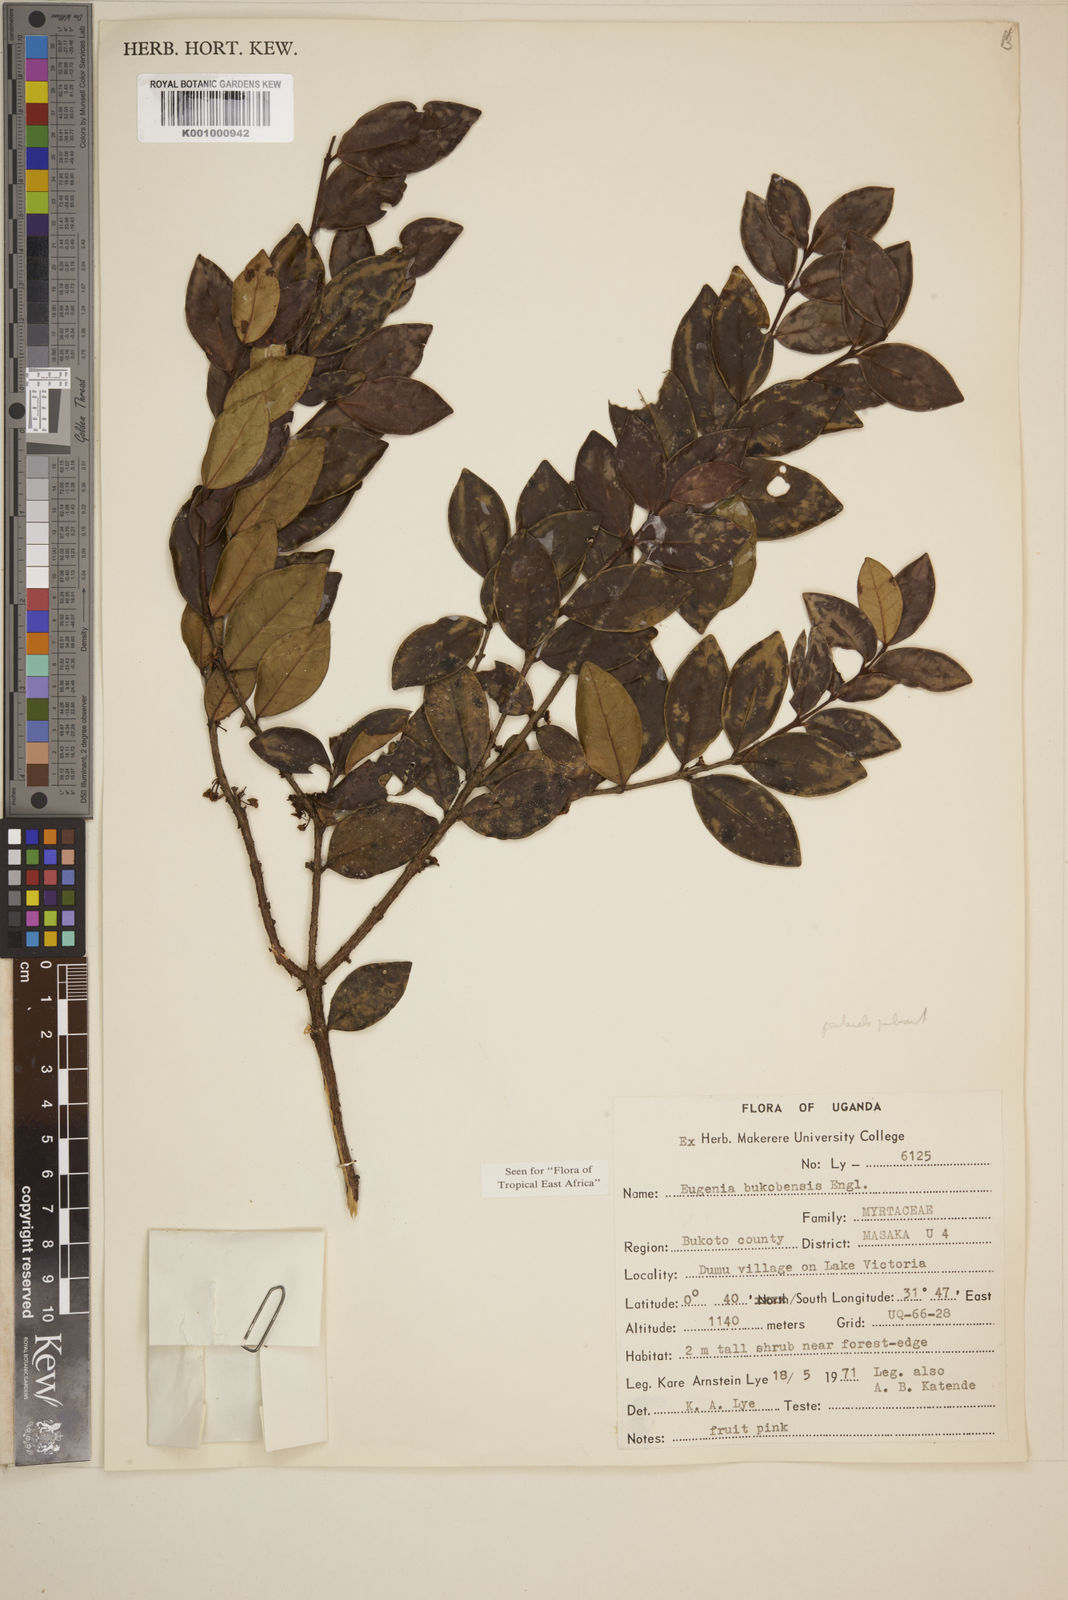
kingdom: Plantae
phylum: Tracheophyta
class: Magnoliopsida
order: Myrtales
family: Myrtaceae
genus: Eugenia
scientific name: Eugenia bukobensis
